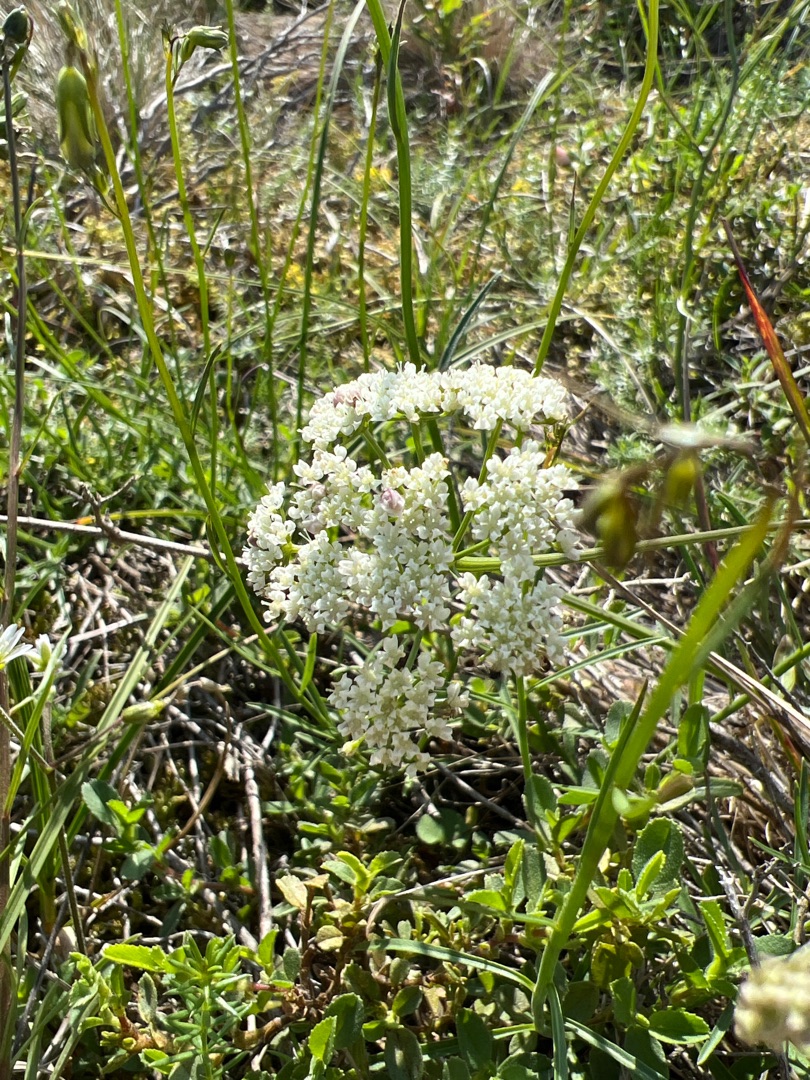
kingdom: Plantae
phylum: Tracheophyta
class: Magnoliopsida
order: Apiales
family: Apiaceae
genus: Pimpinella
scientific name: Pimpinella saxifraga
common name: Almindelig pimpinelle
